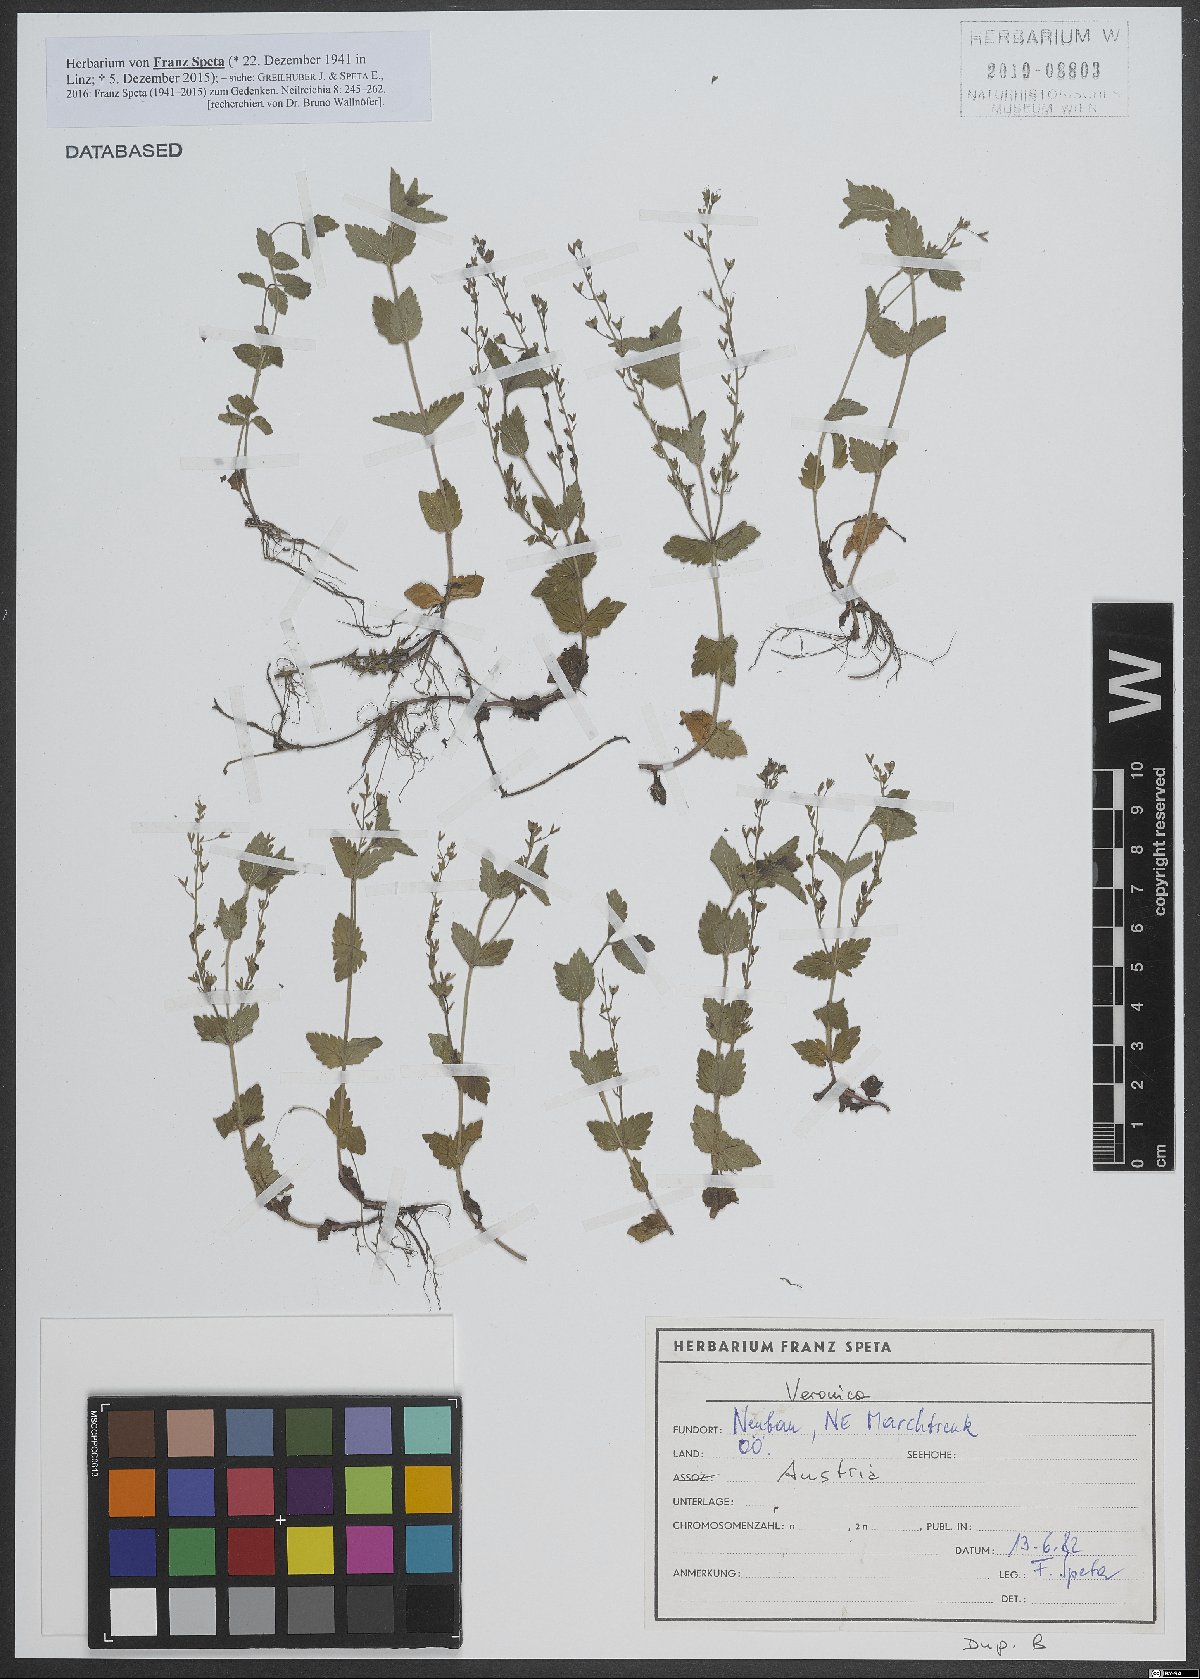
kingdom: Plantae
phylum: Tracheophyta
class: Magnoliopsida
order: Lamiales
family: Plantaginaceae
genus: Veronica
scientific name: Veronica
